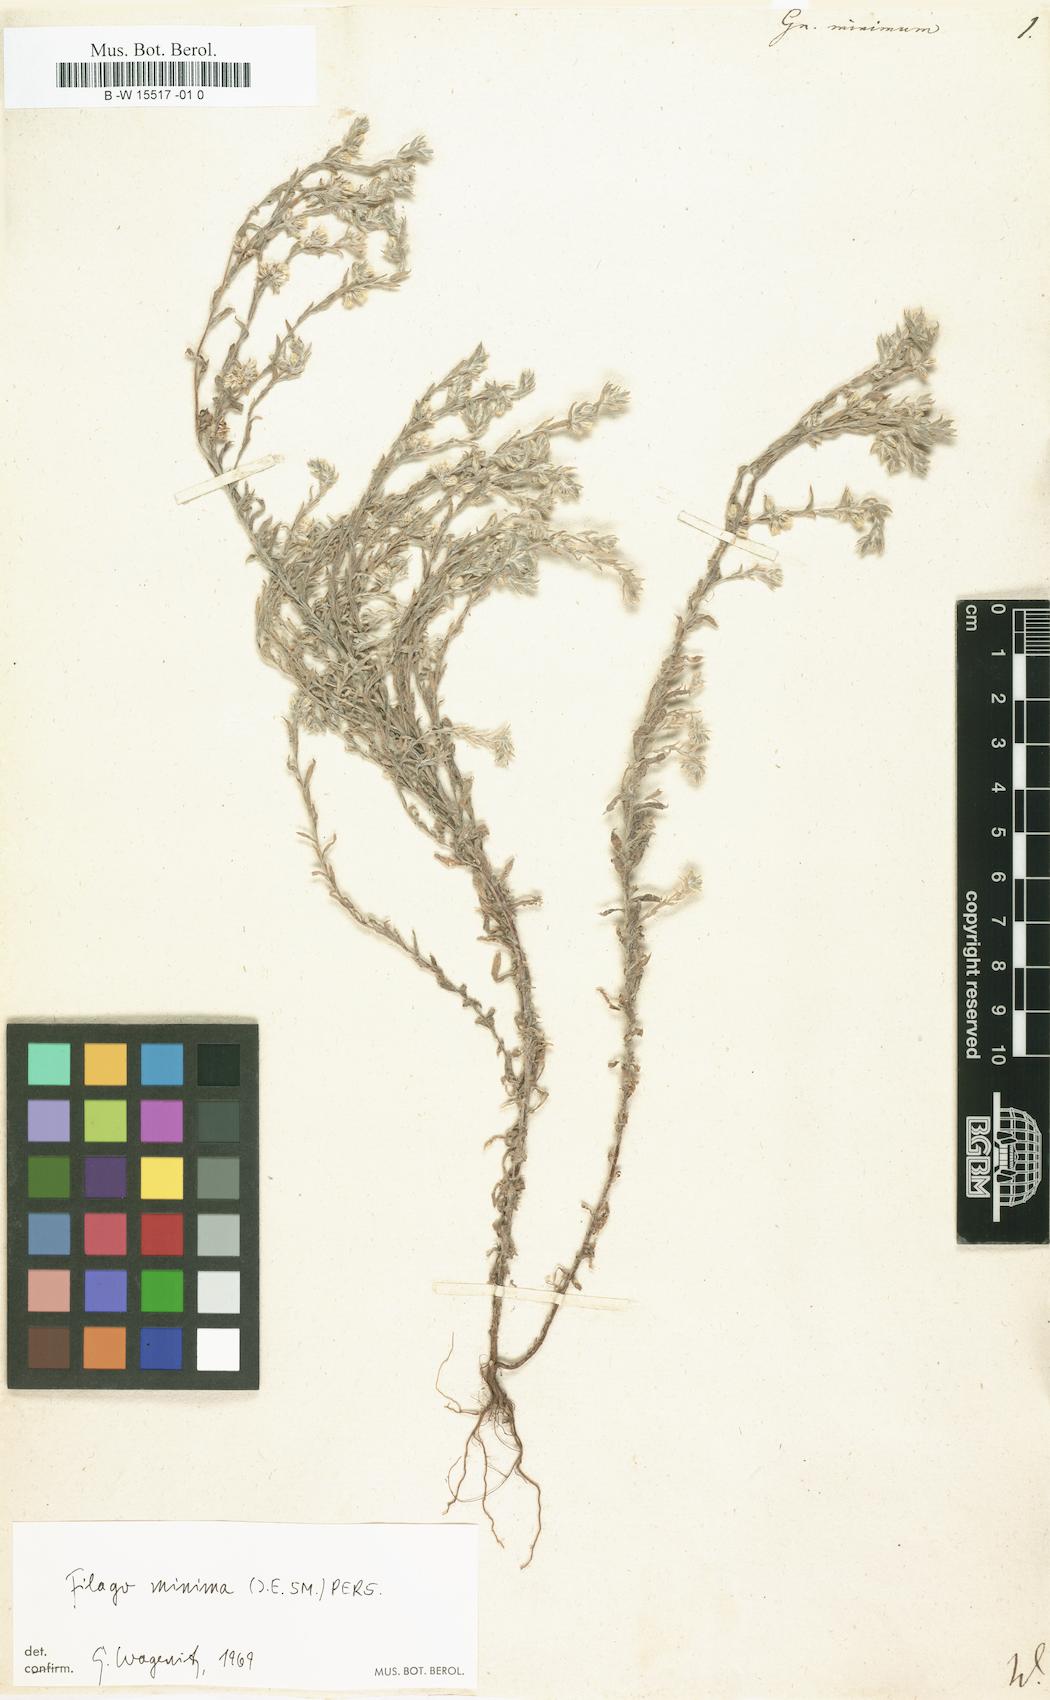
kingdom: Plantae
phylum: Tracheophyta
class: Magnoliopsida
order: Asterales
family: Asteraceae
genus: Logfia
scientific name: Logfia minima
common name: Little cottonrose
